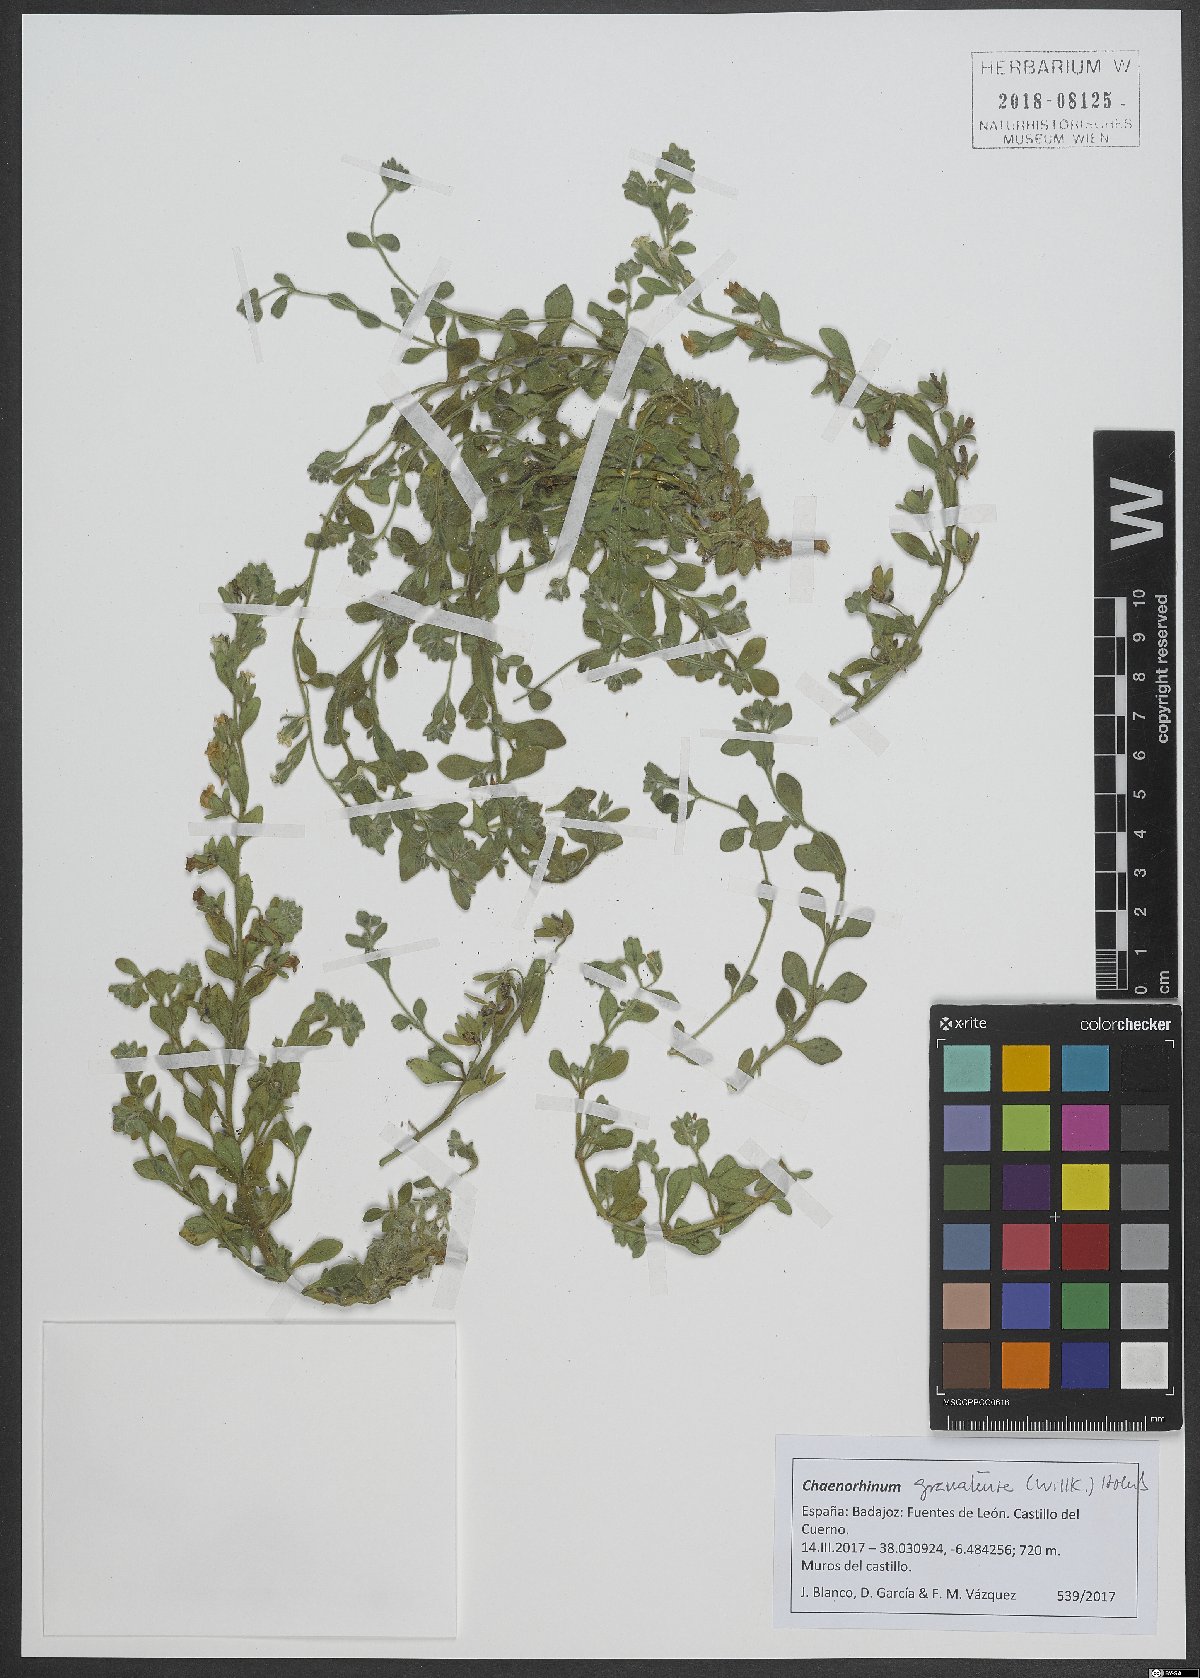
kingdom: Plantae
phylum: Tracheophyta
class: Magnoliopsida
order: Lamiales
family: Plantaginaceae
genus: Chaenorhinum
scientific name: Chaenorhinum villosum
